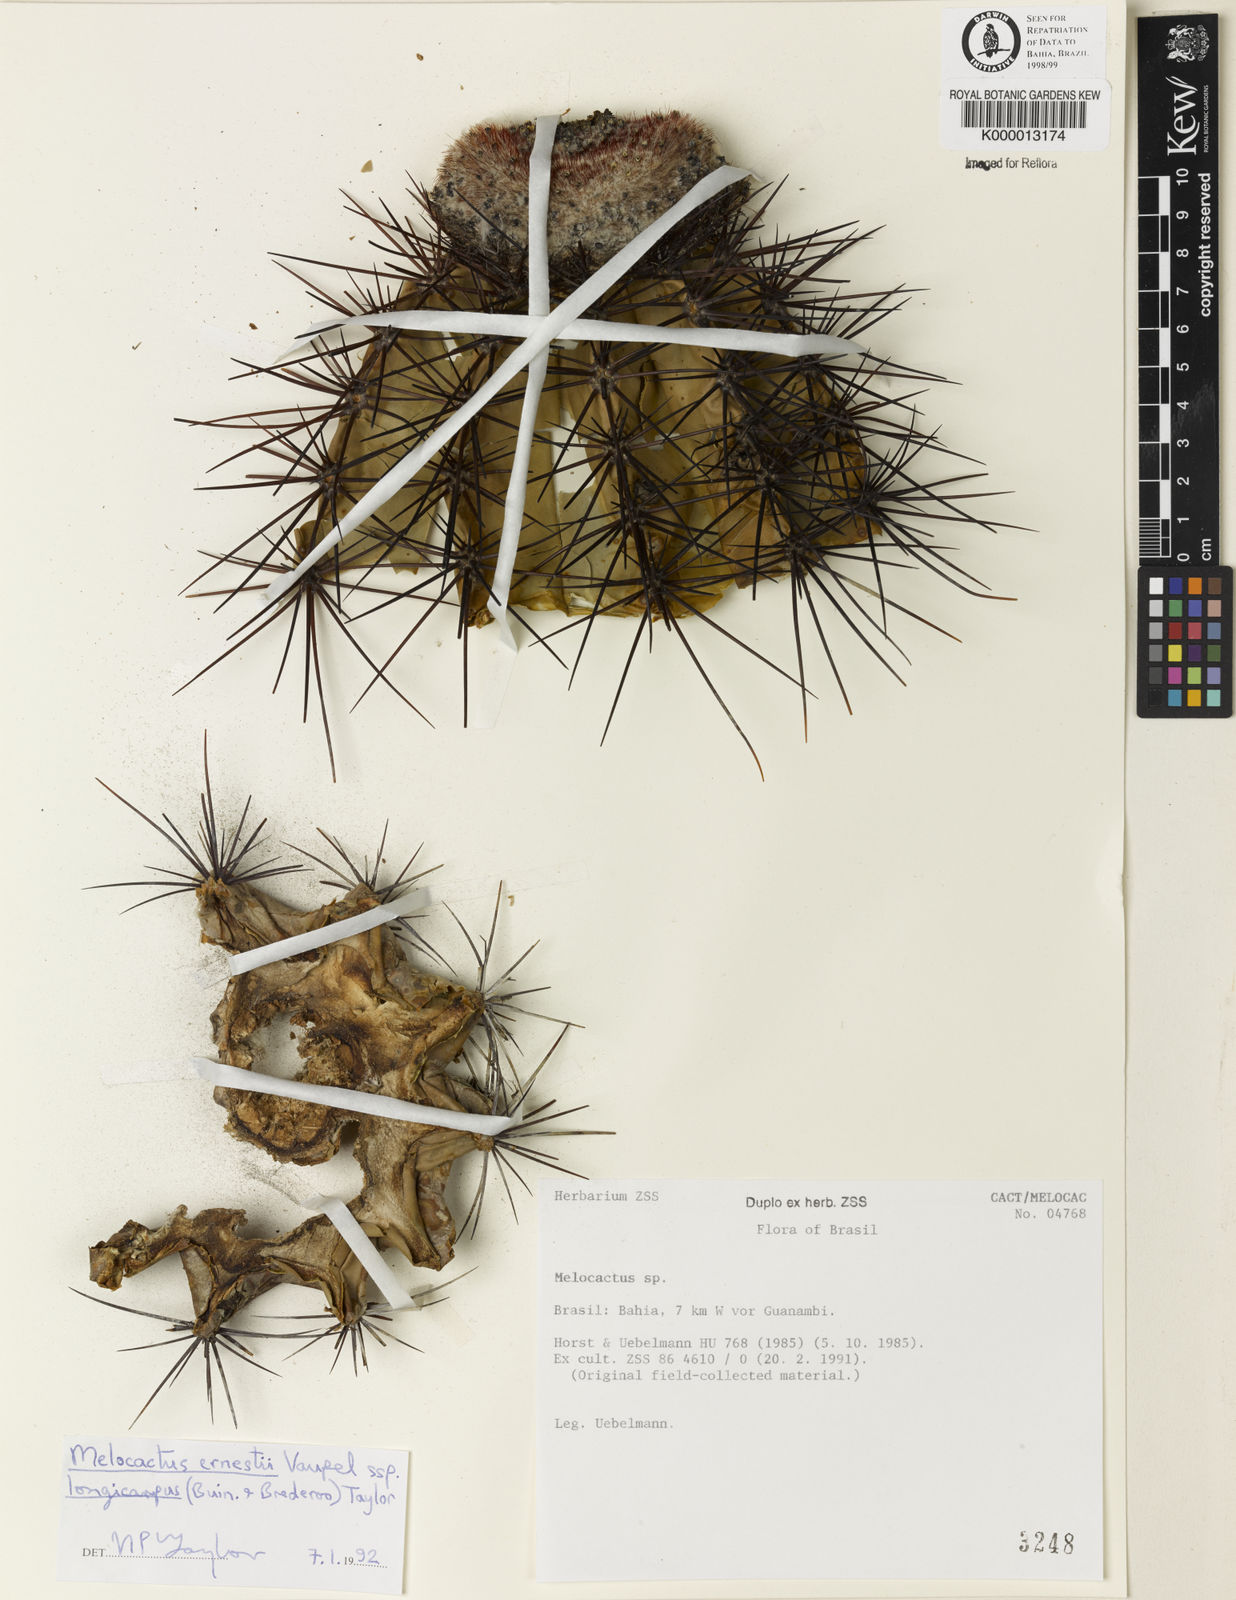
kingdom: Plantae
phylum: Tracheophyta
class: Magnoliopsida
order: Caryophyllales
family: Cactaceae
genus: Melocactus
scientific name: Melocactus ernestii
